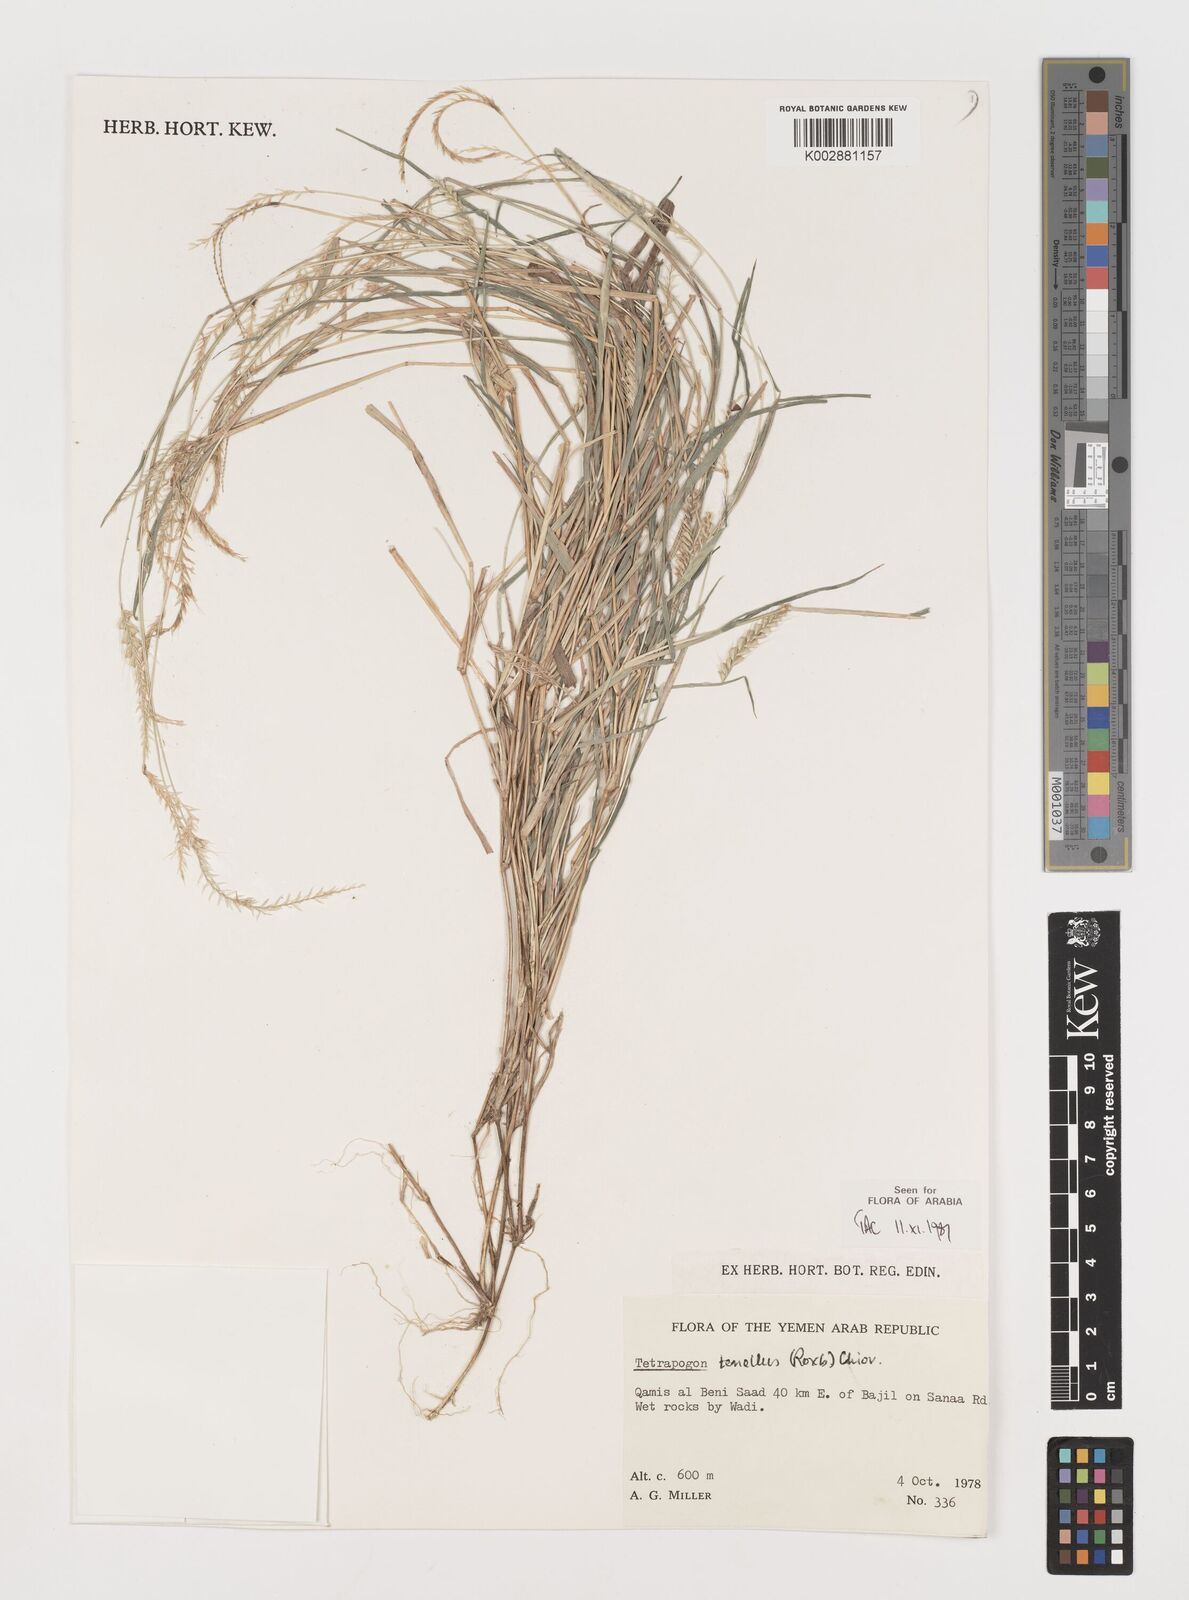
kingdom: Plantae
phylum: Tracheophyta
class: Liliopsida
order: Poales
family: Poaceae
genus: Tetrapogon
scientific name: Tetrapogon tenellus
